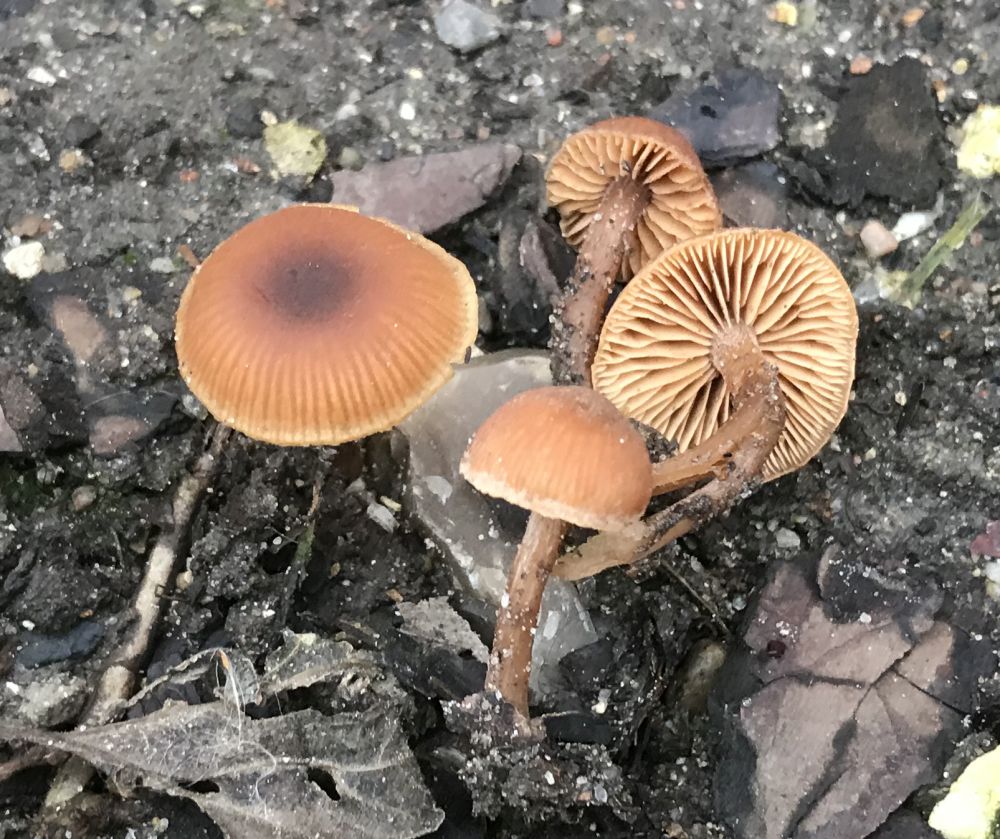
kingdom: Fungi
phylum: Basidiomycota
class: Agaricomycetes
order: Agaricales
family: Tubariaceae
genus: Tubaria
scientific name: Tubaria furfuracea
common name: kliddet fnughat
